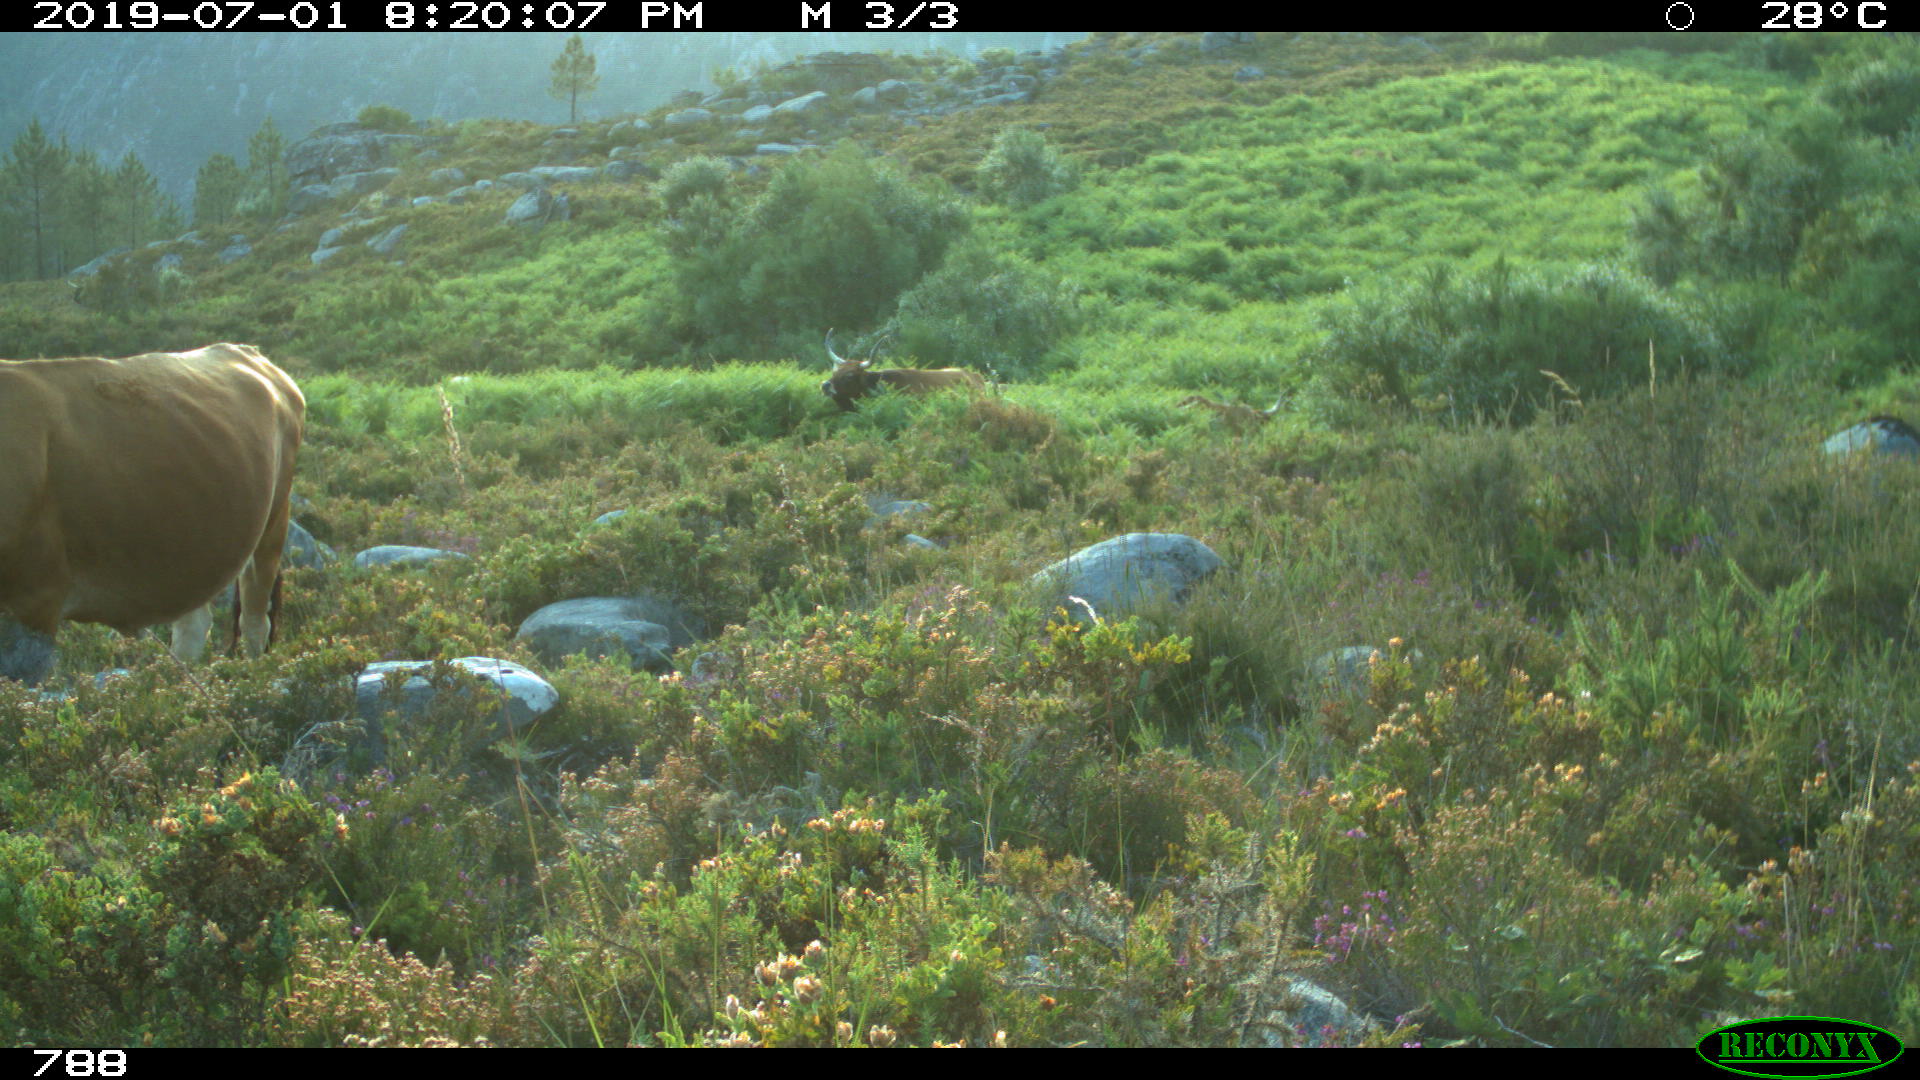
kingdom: Animalia
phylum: Chordata
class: Mammalia
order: Artiodactyla
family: Bovidae
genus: Bos
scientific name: Bos taurus
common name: Domesticated cattle
